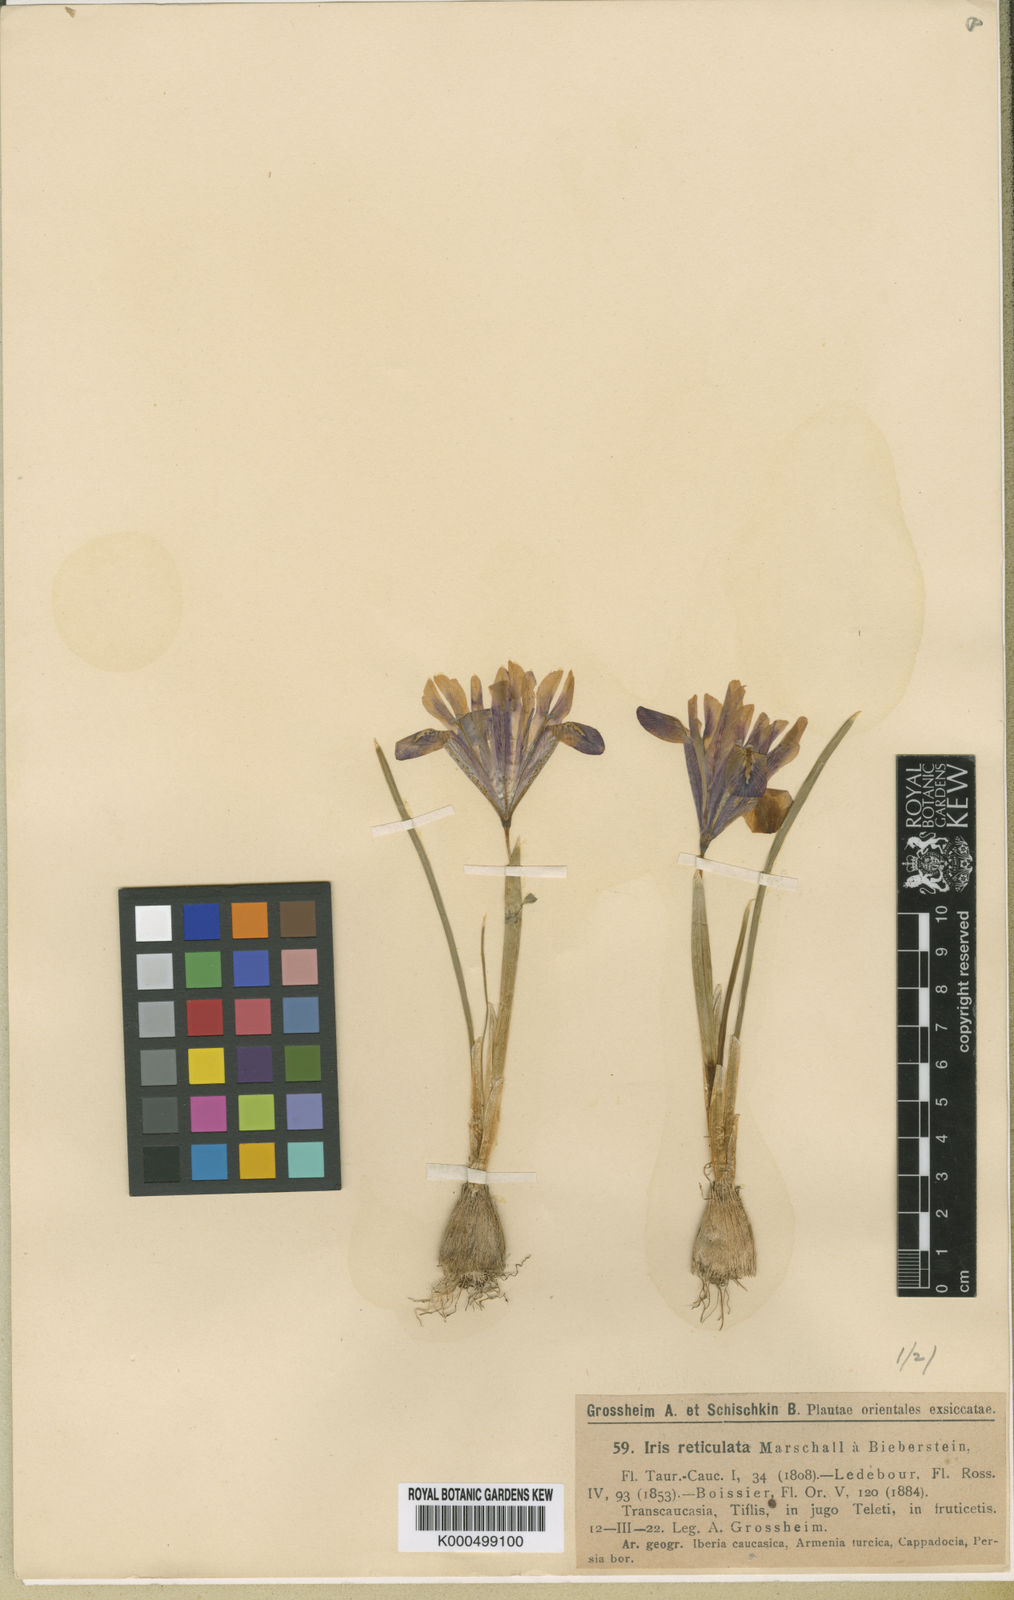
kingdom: Plantae
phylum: Tracheophyta
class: Liliopsida
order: Asparagales
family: Iridaceae
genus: Iris
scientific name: Iris kolpakowskiana
